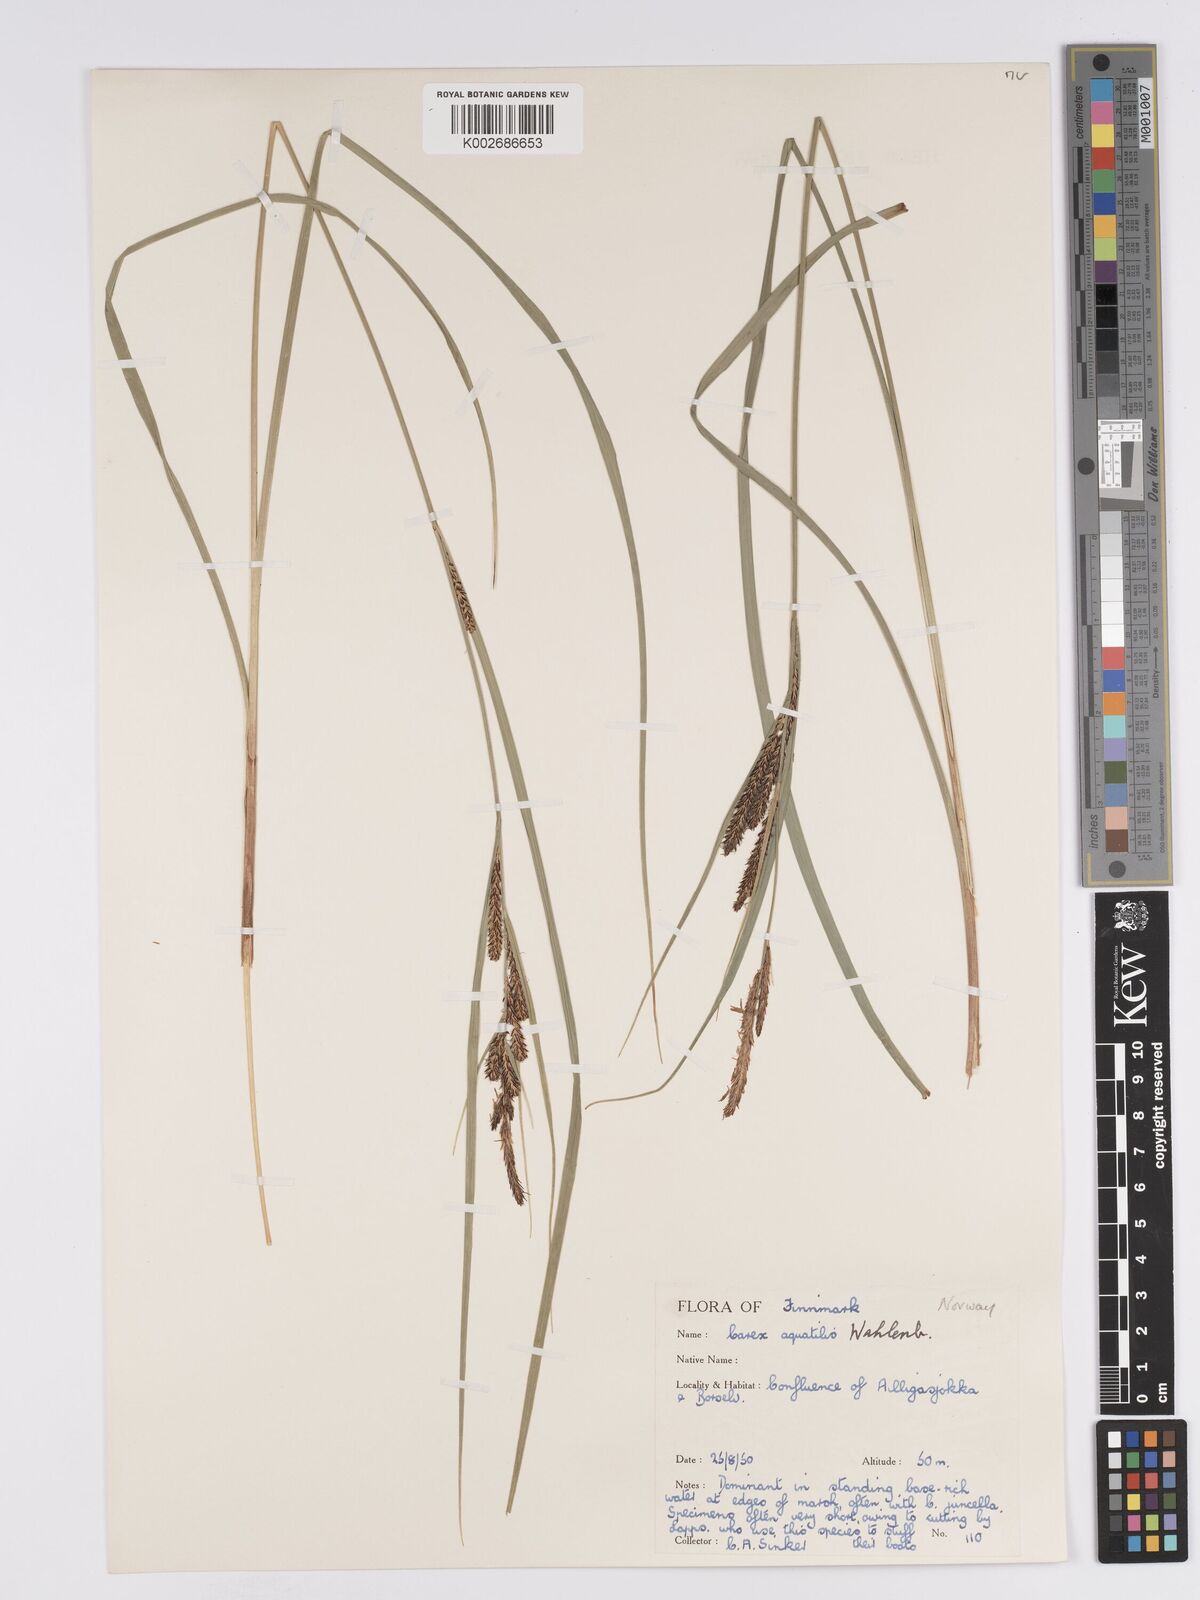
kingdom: Plantae
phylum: Tracheophyta
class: Liliopsida
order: Poales
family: Cyperaceae
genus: Carex
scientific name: Carex aquatilis
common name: Water sedge
